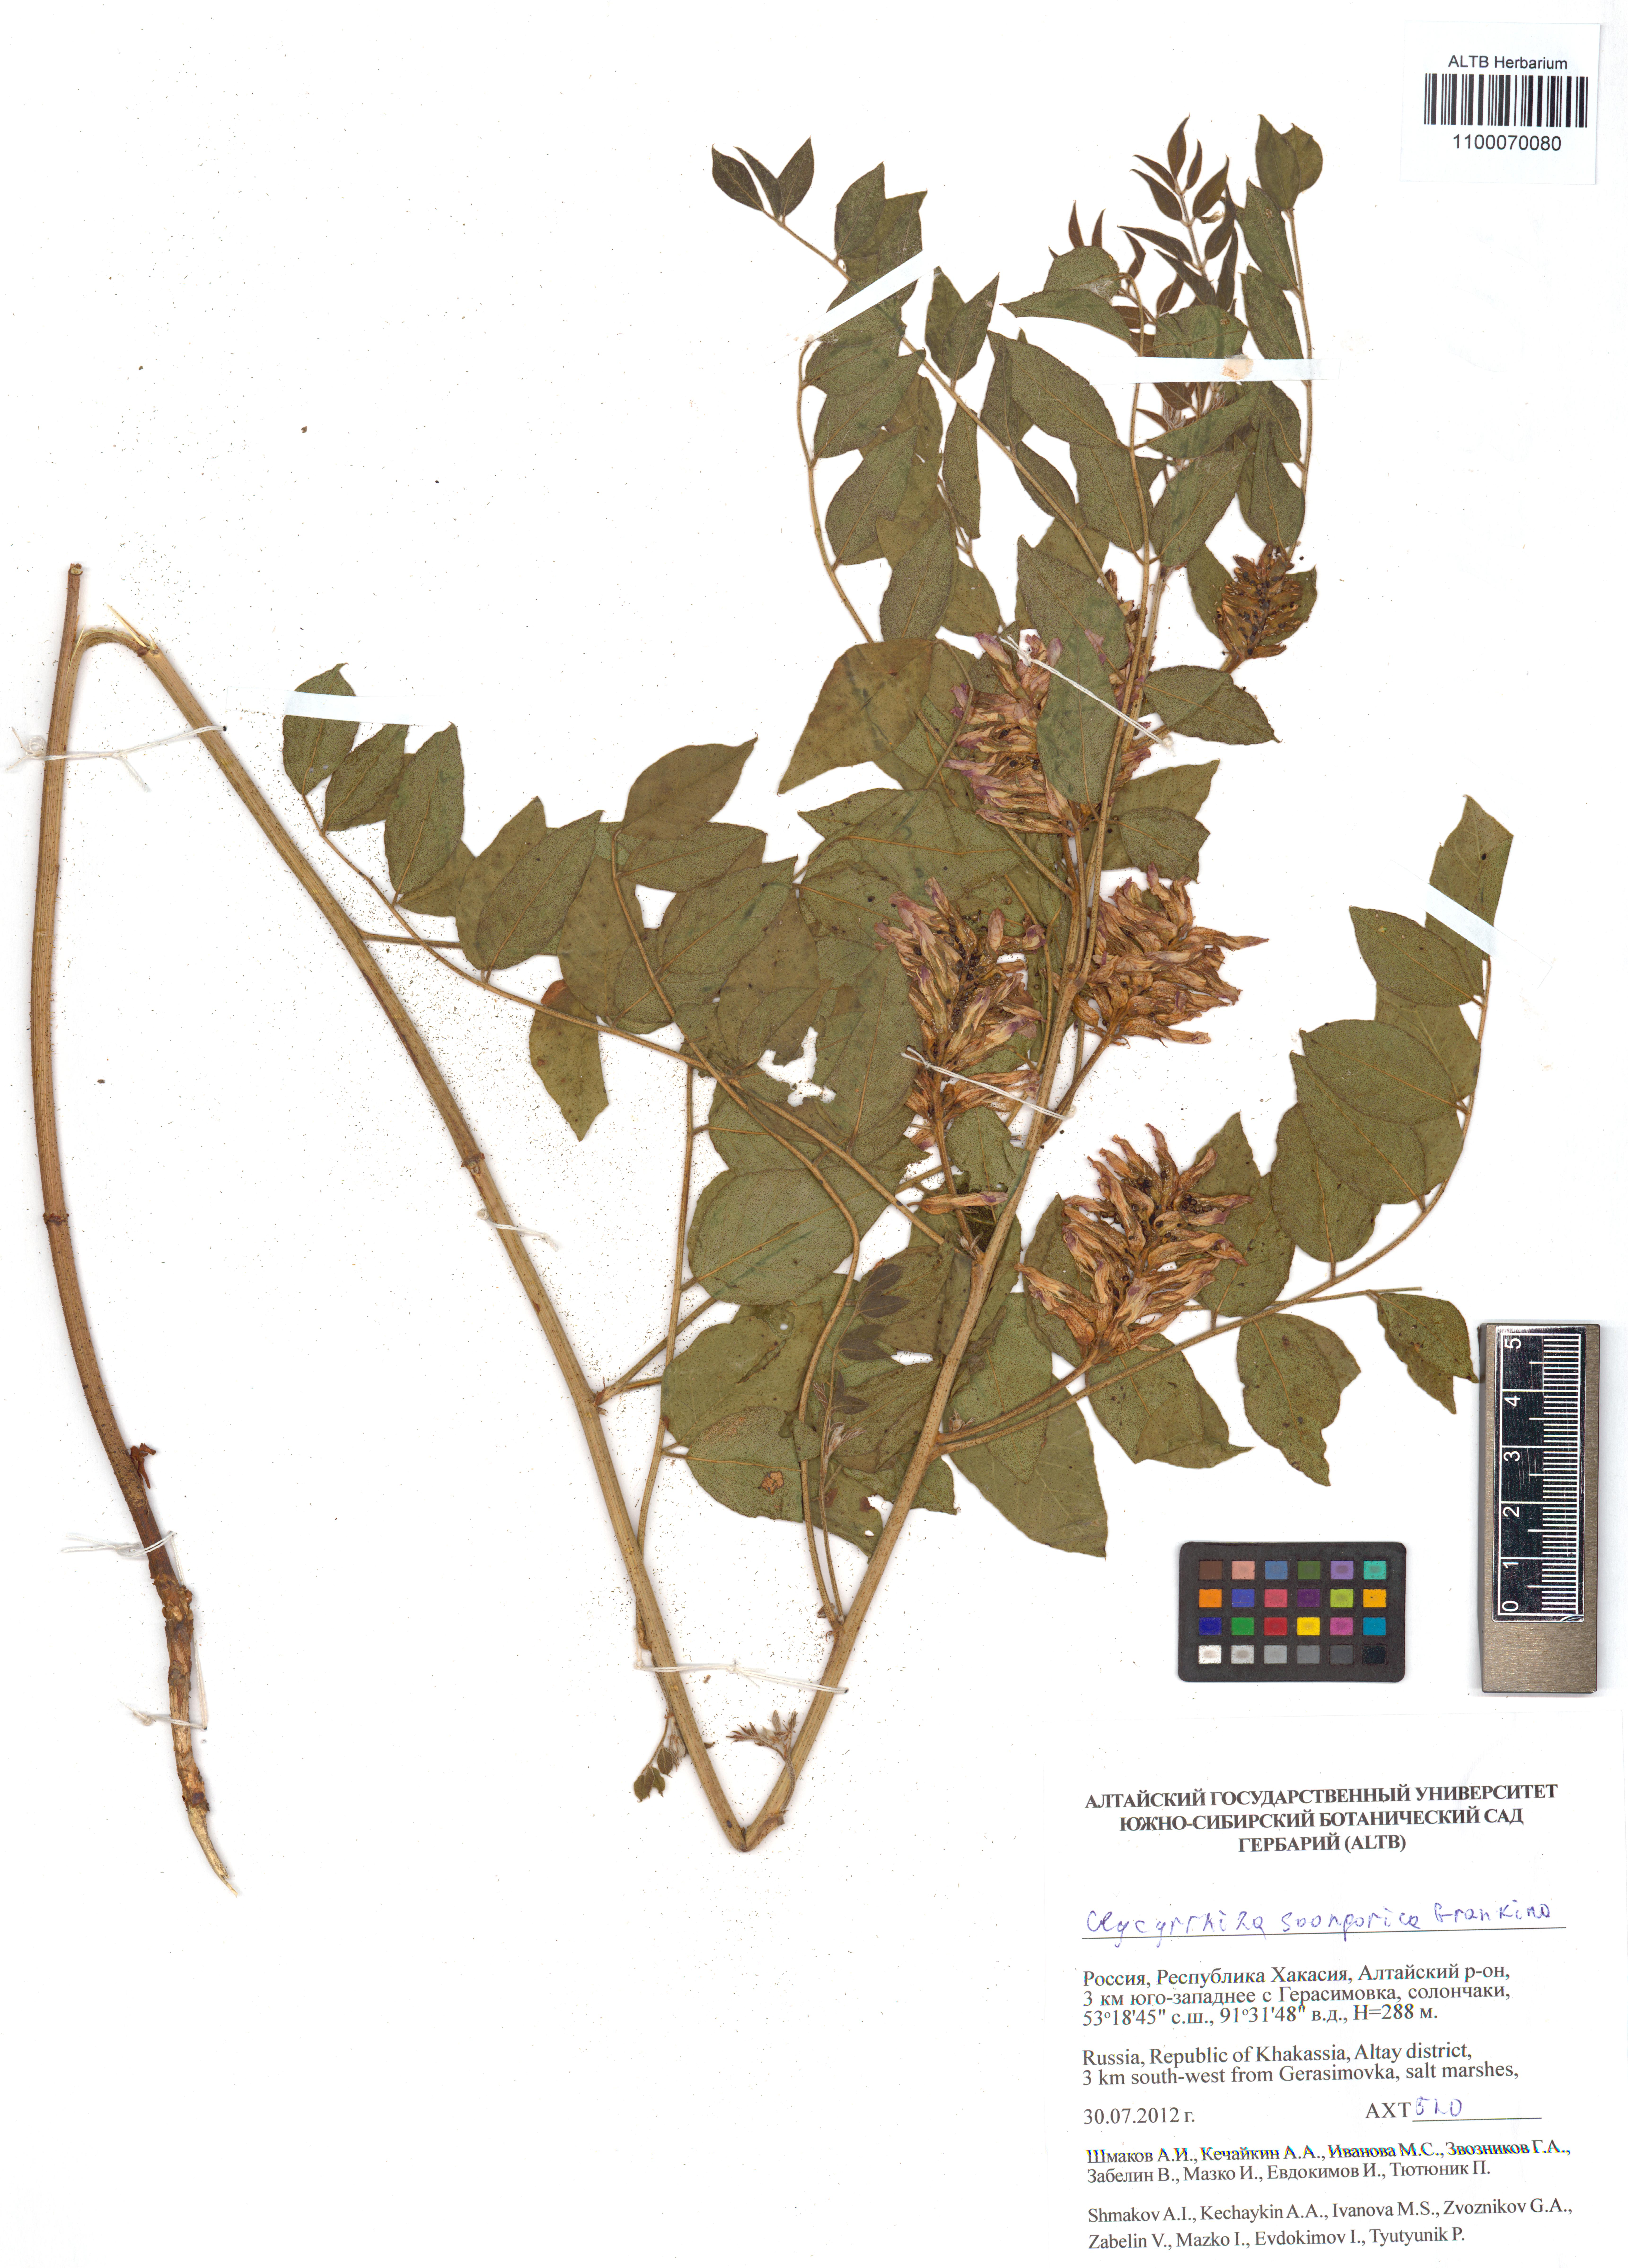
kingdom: Plantae
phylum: Tracheophyta
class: Magnoliopsida
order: Fabales
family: Fabaceae
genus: Glycyrrhiza
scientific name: Glycyrrhiza uralensis
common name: Chinese licorice
